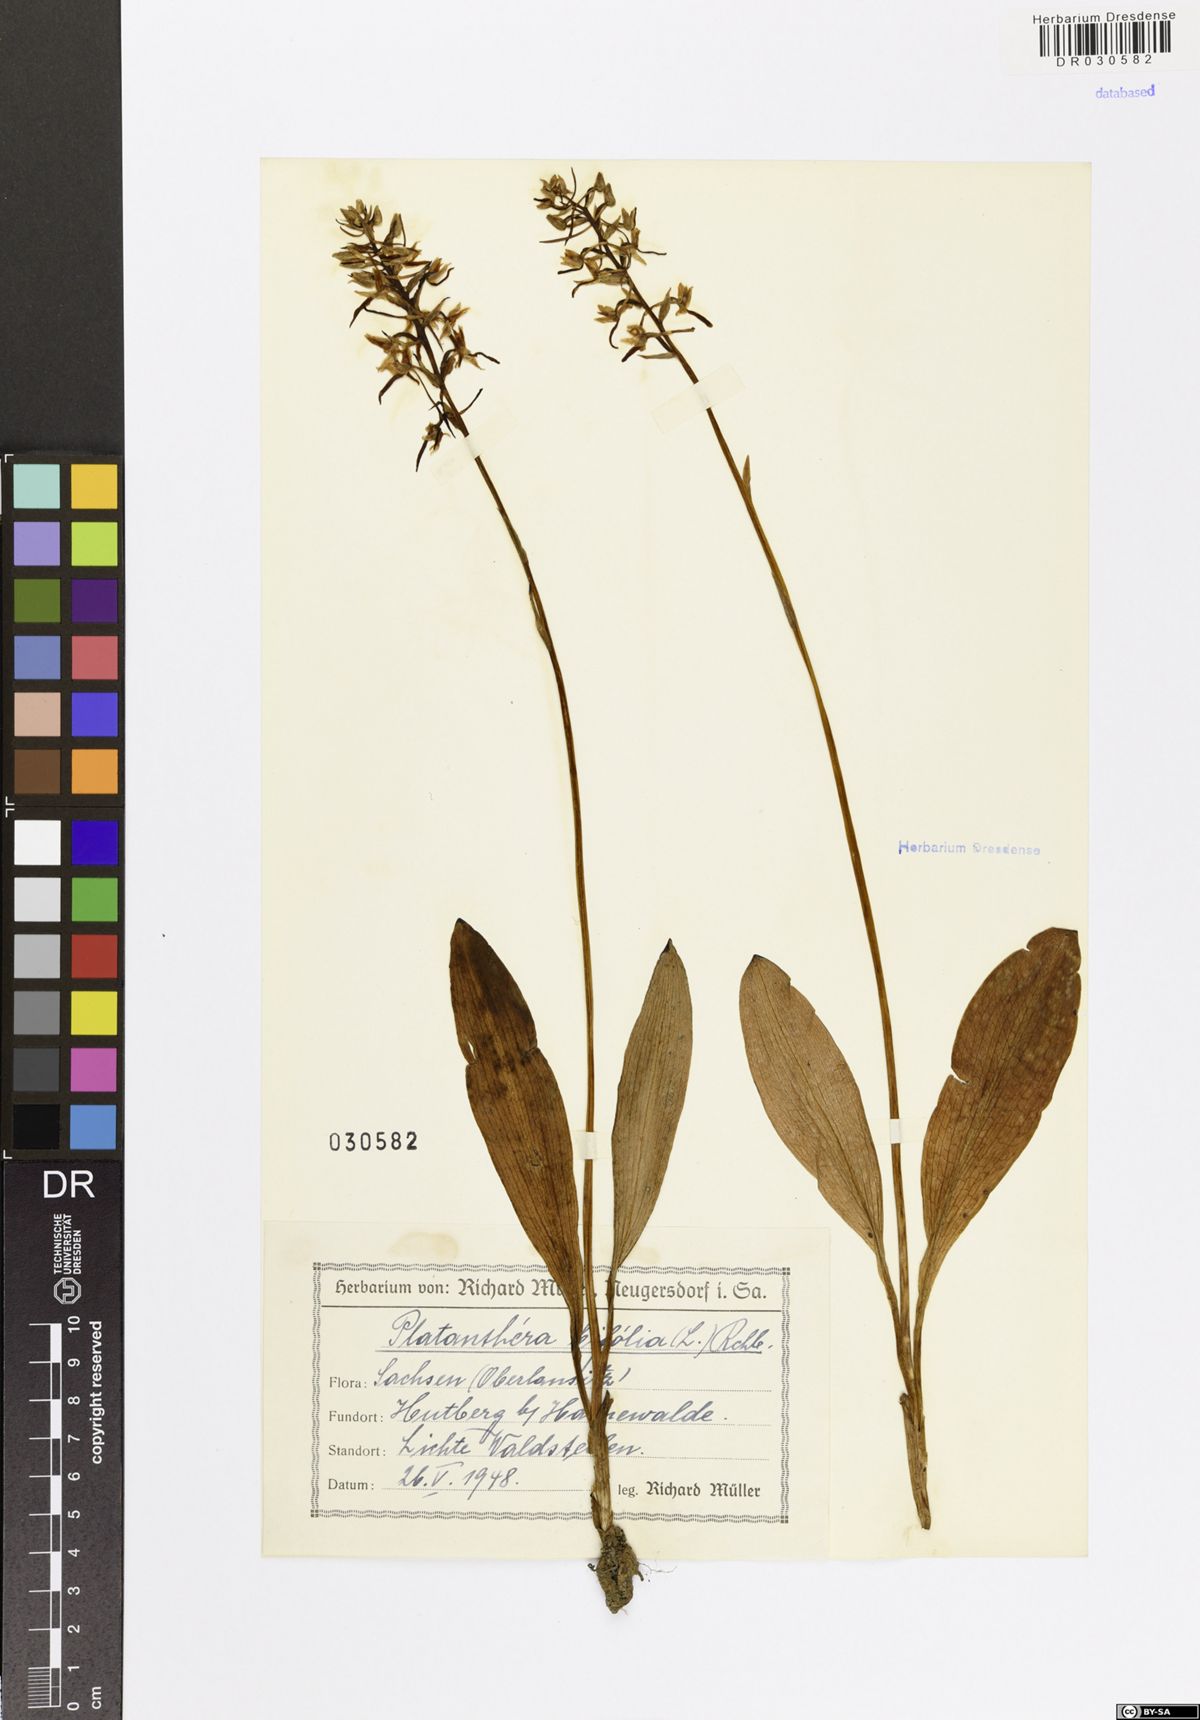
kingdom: Plantae
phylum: Tracheophyta
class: Liliopsida
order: Asparagales
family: Orchidaceae
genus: Platanthera
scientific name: Platanthera bifolia
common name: Lesser butterfly-orchid
